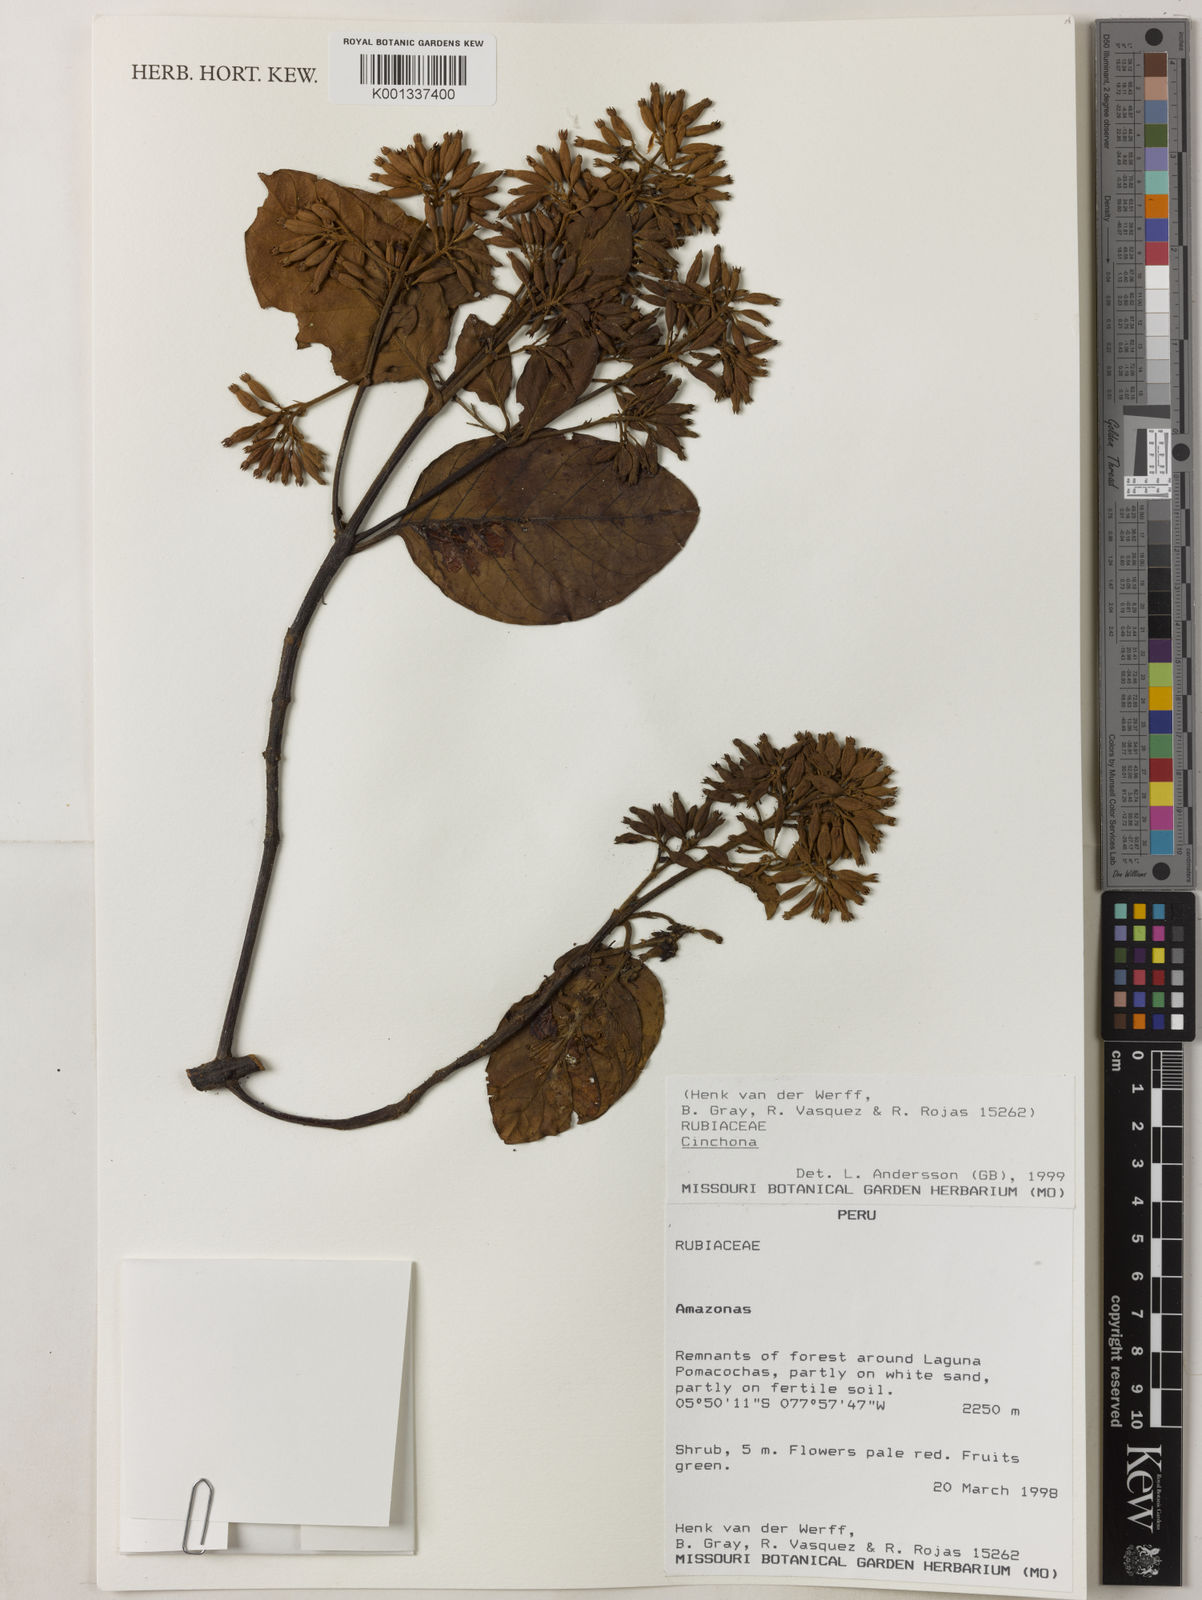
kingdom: Plantae
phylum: Tracheophyta
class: Magnoliopsida
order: Gentianales
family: Rubiaceae
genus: Cinchona
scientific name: Cinchona
